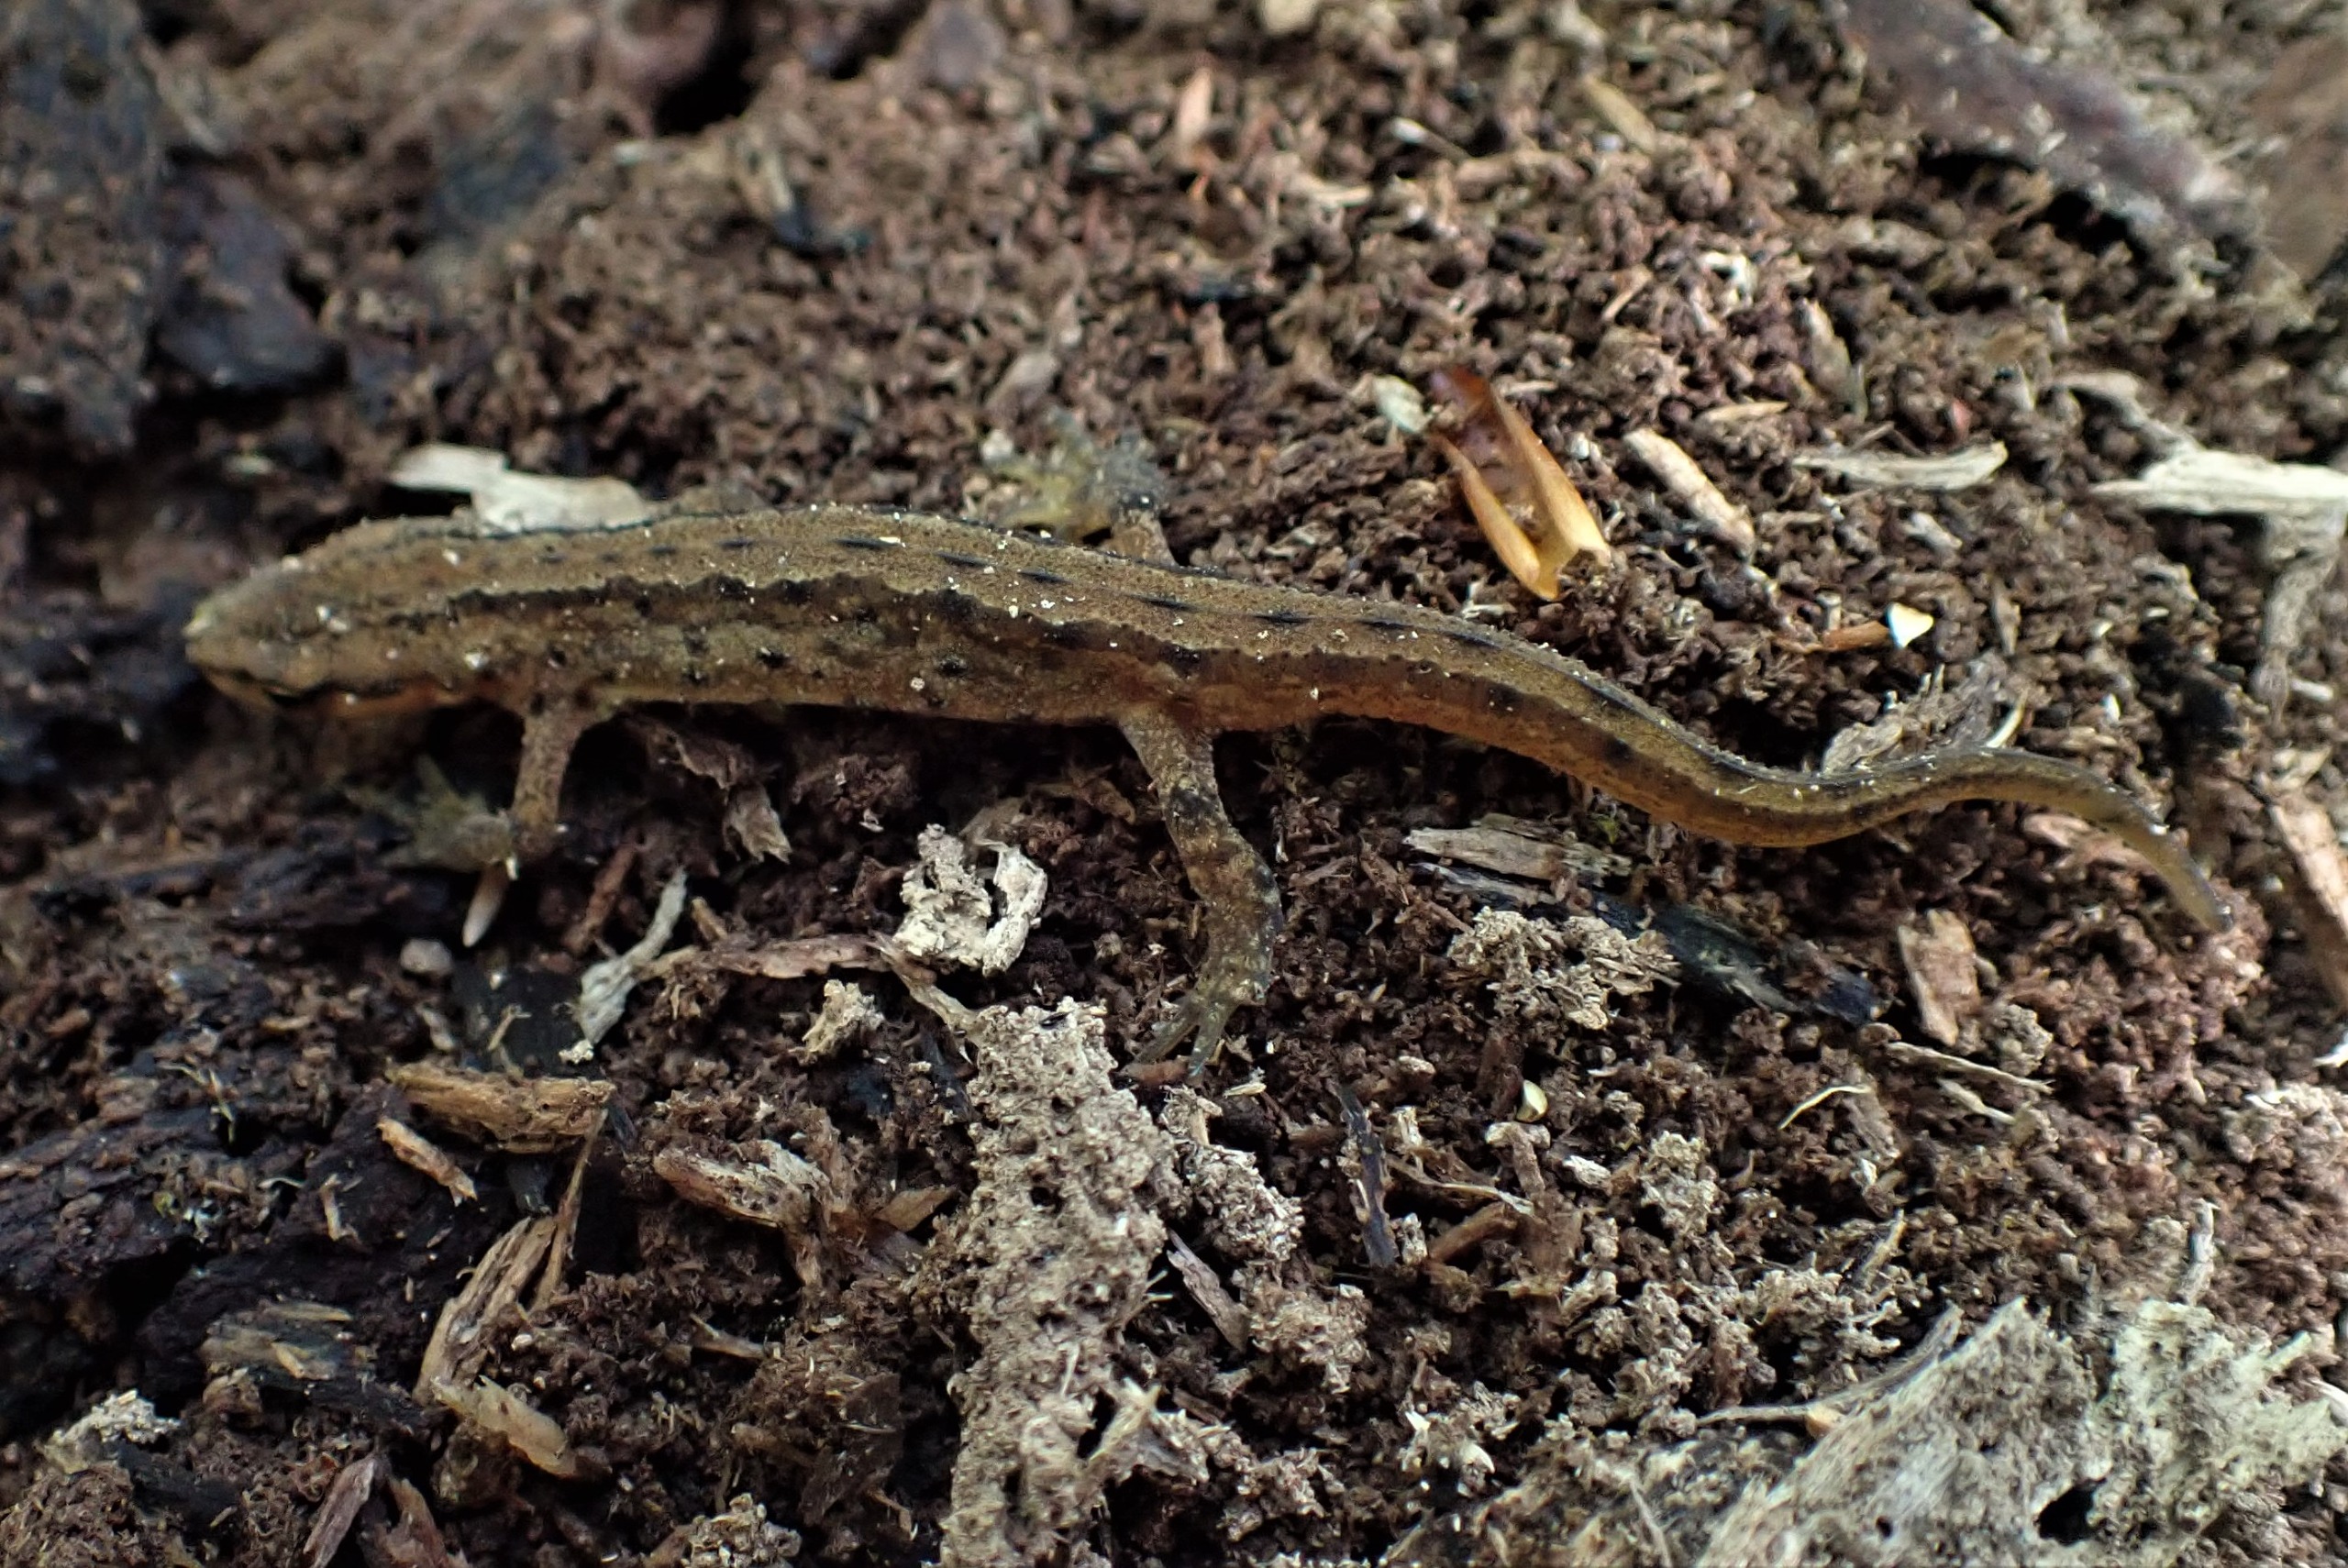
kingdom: Animalia
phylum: Chordata
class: Amphibia
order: Caudata
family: Salamandridae
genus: Lissotriton
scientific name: Lissotriton vulgaris
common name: Lille vandsalamander
